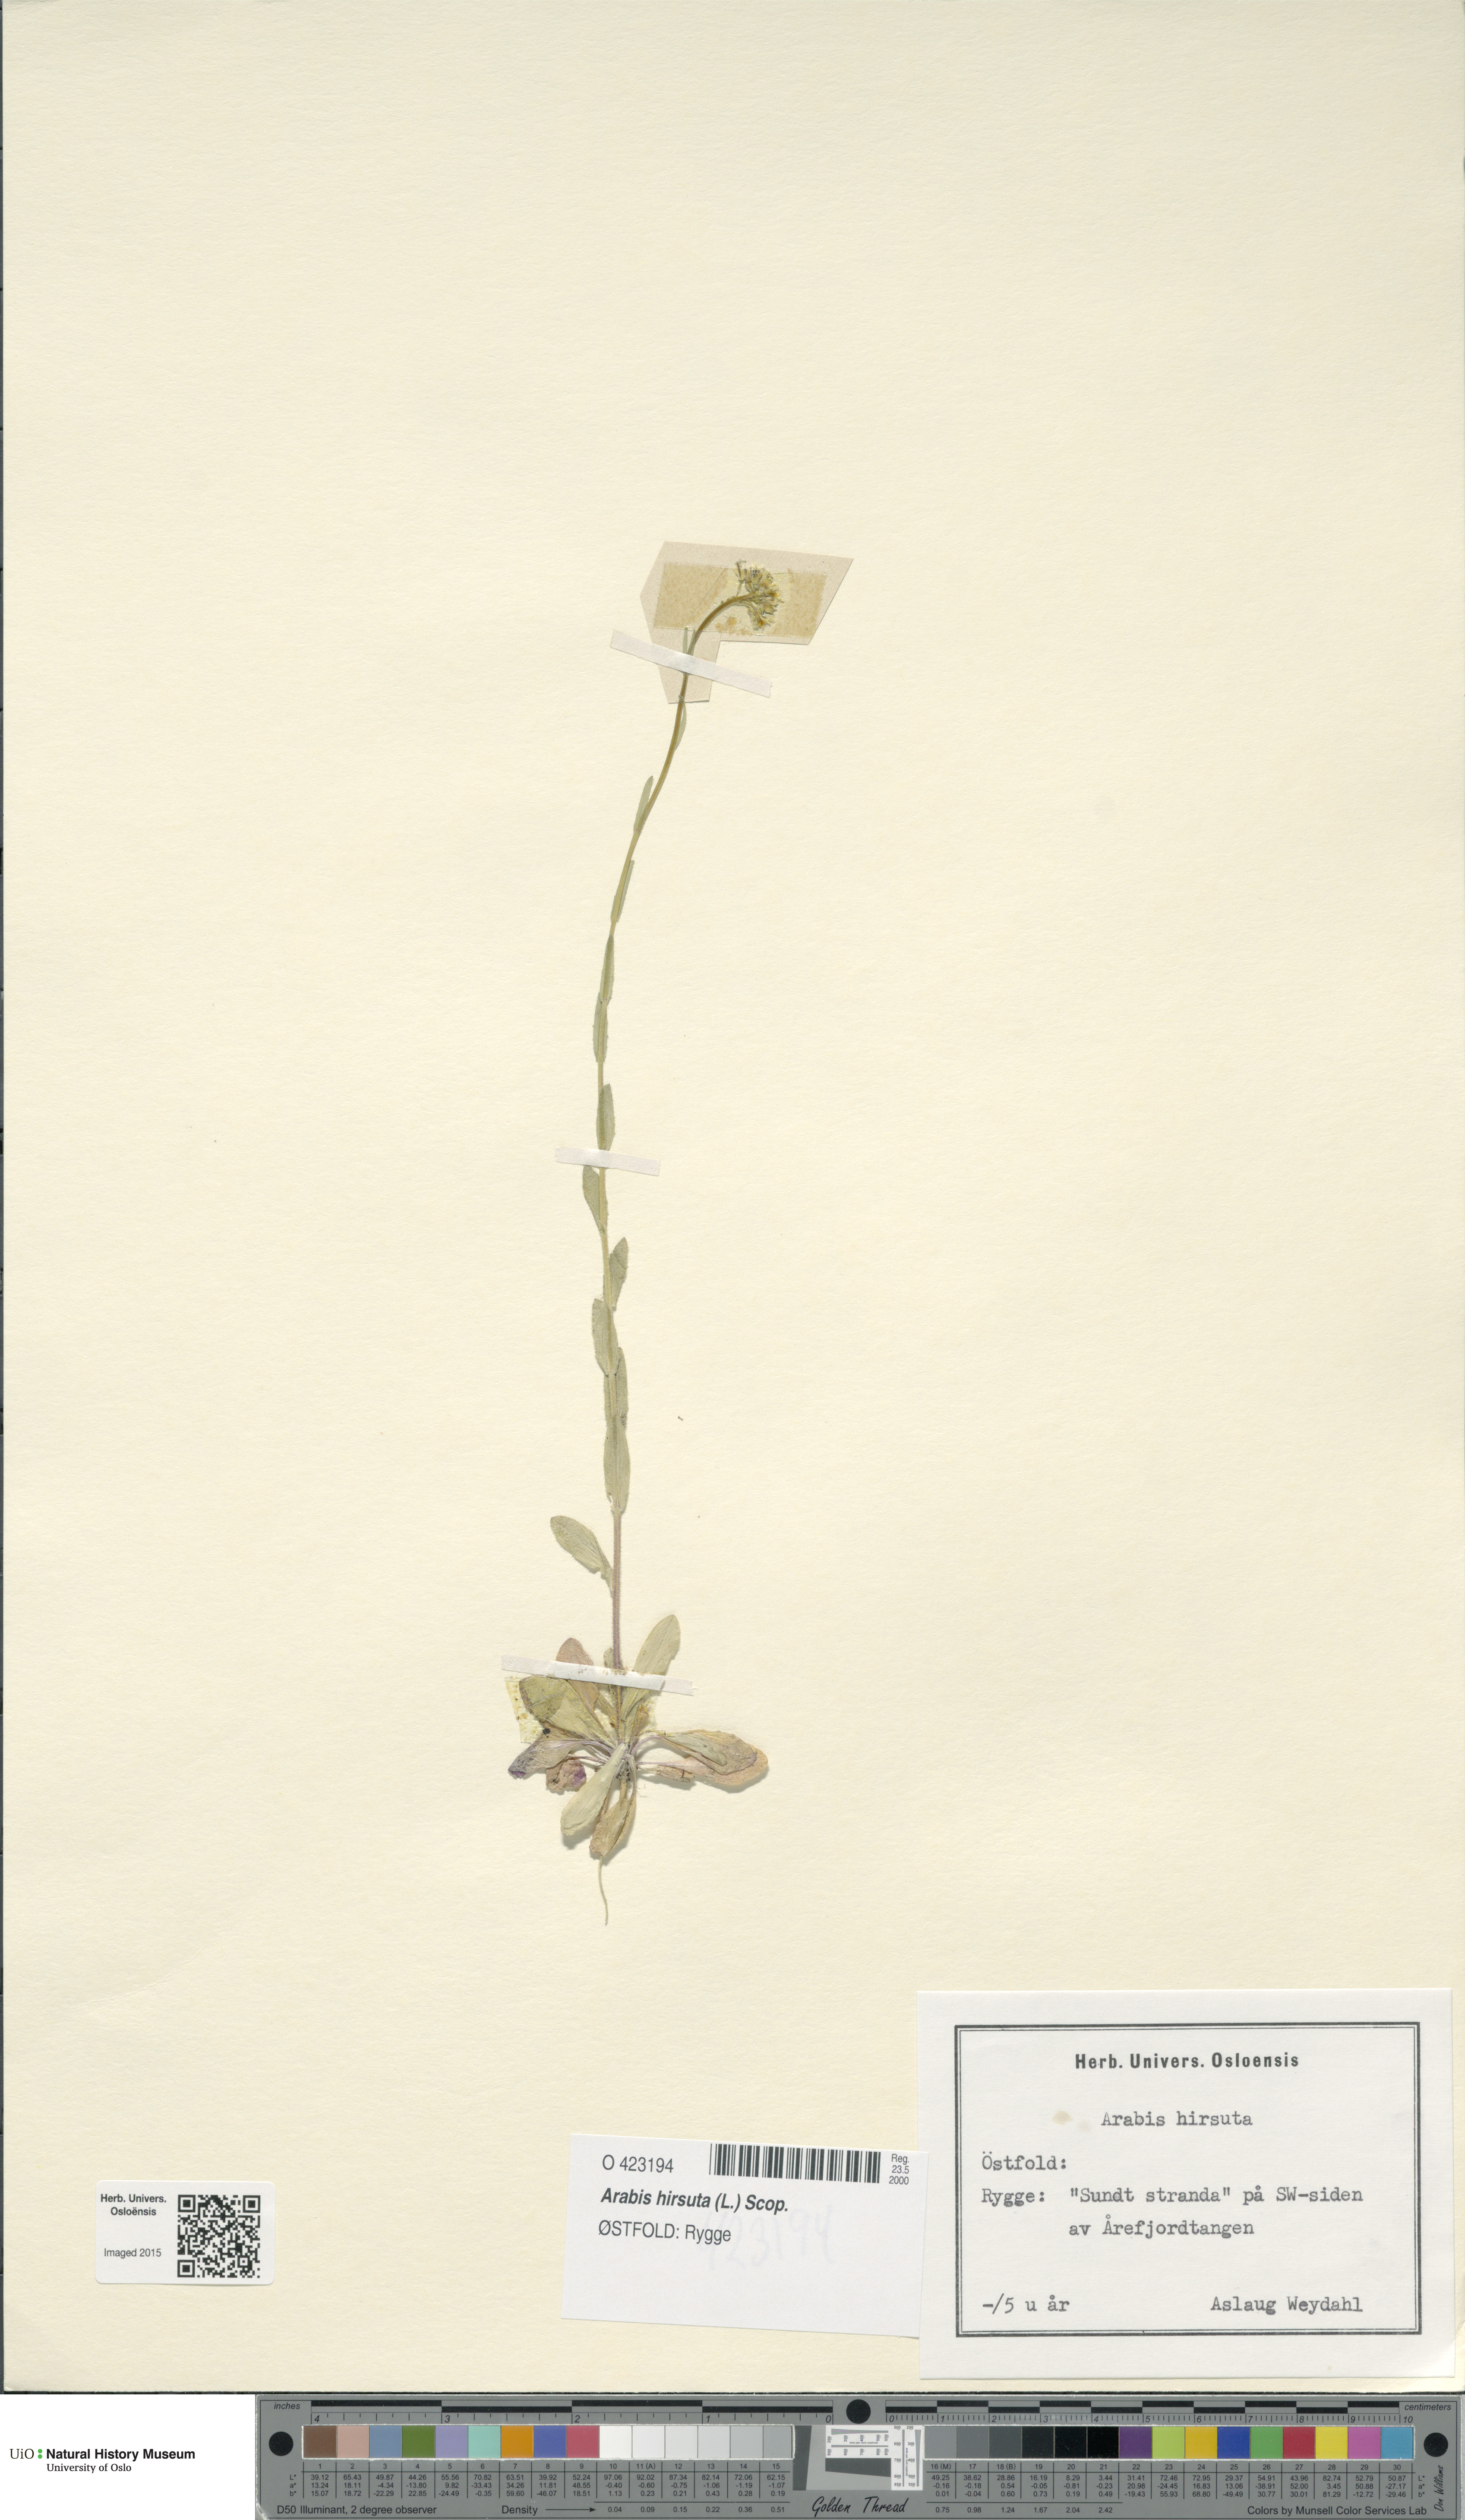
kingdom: Plantae
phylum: Tracheophyta
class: Magnoliopsida
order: Brassicales
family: Brassicaceae
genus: Arabis
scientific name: Arabis hirsuta
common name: Hairy rock-cress
